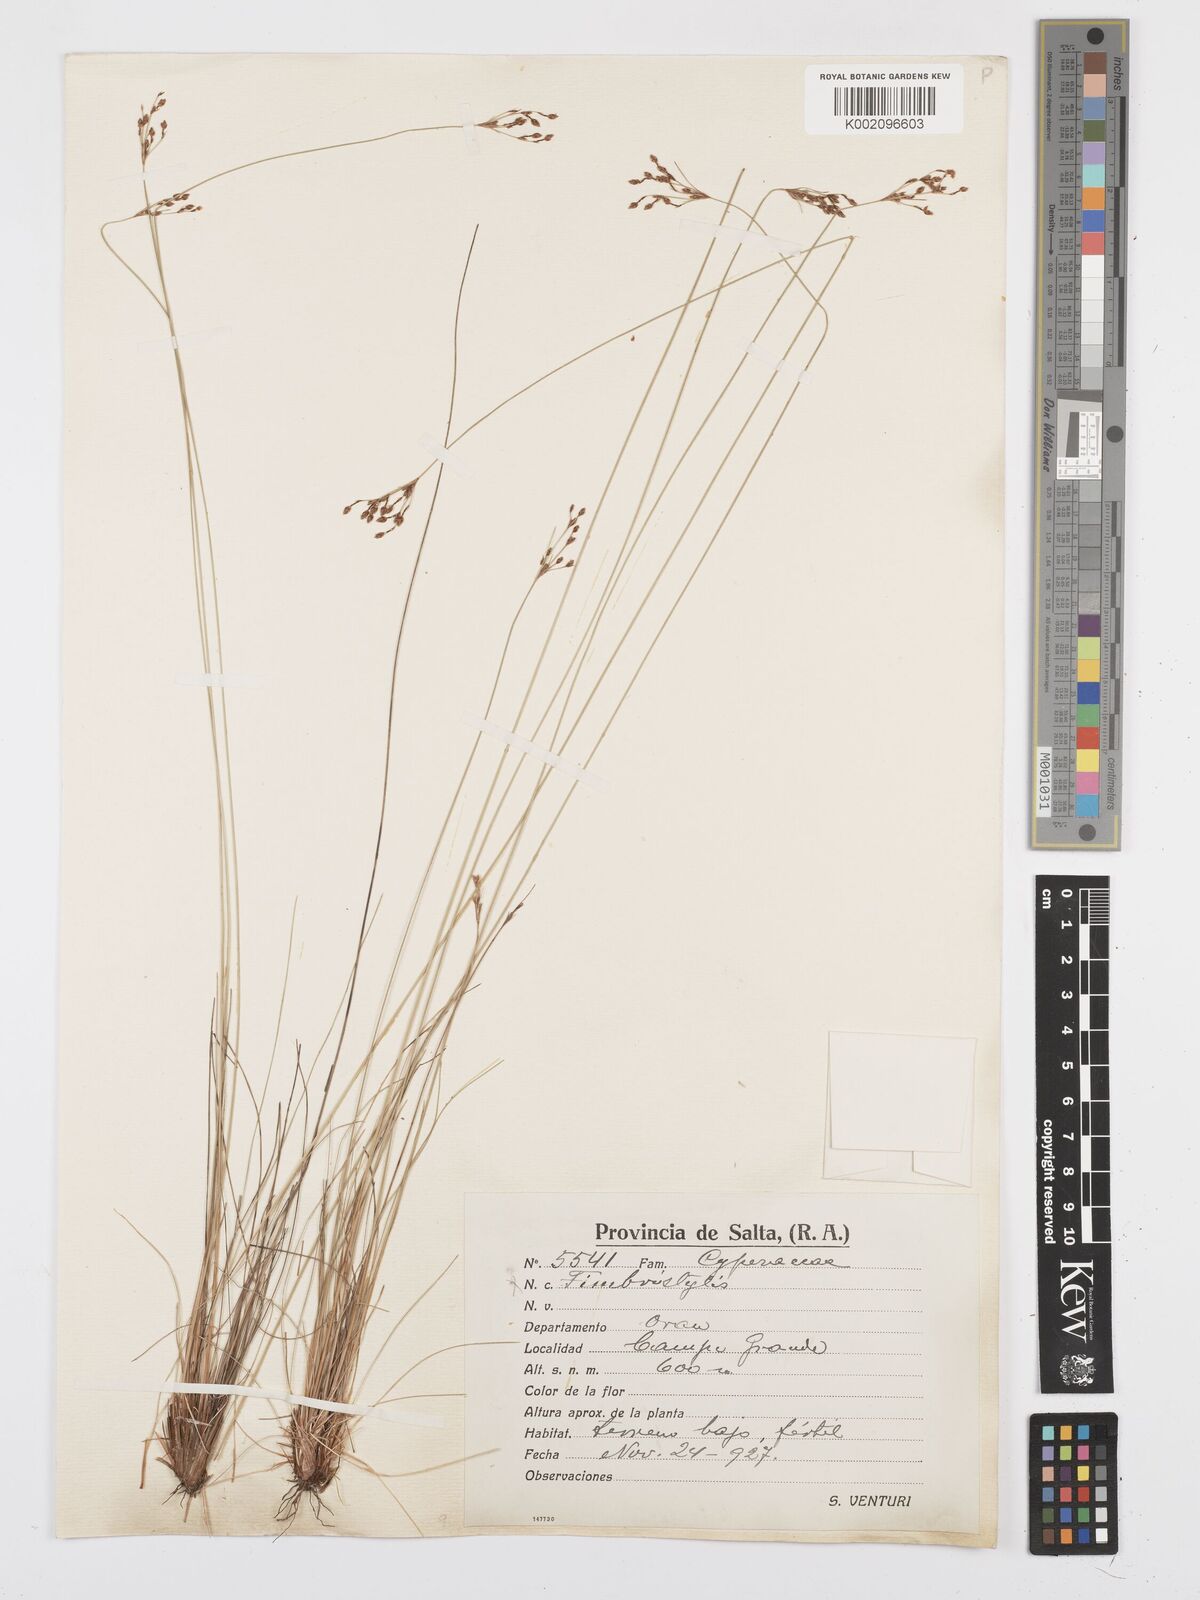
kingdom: Plantae
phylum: Tracheophyta
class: Liliopsida
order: Poales
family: Cyperaceae
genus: Bulbostylis
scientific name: Bulbostylis
